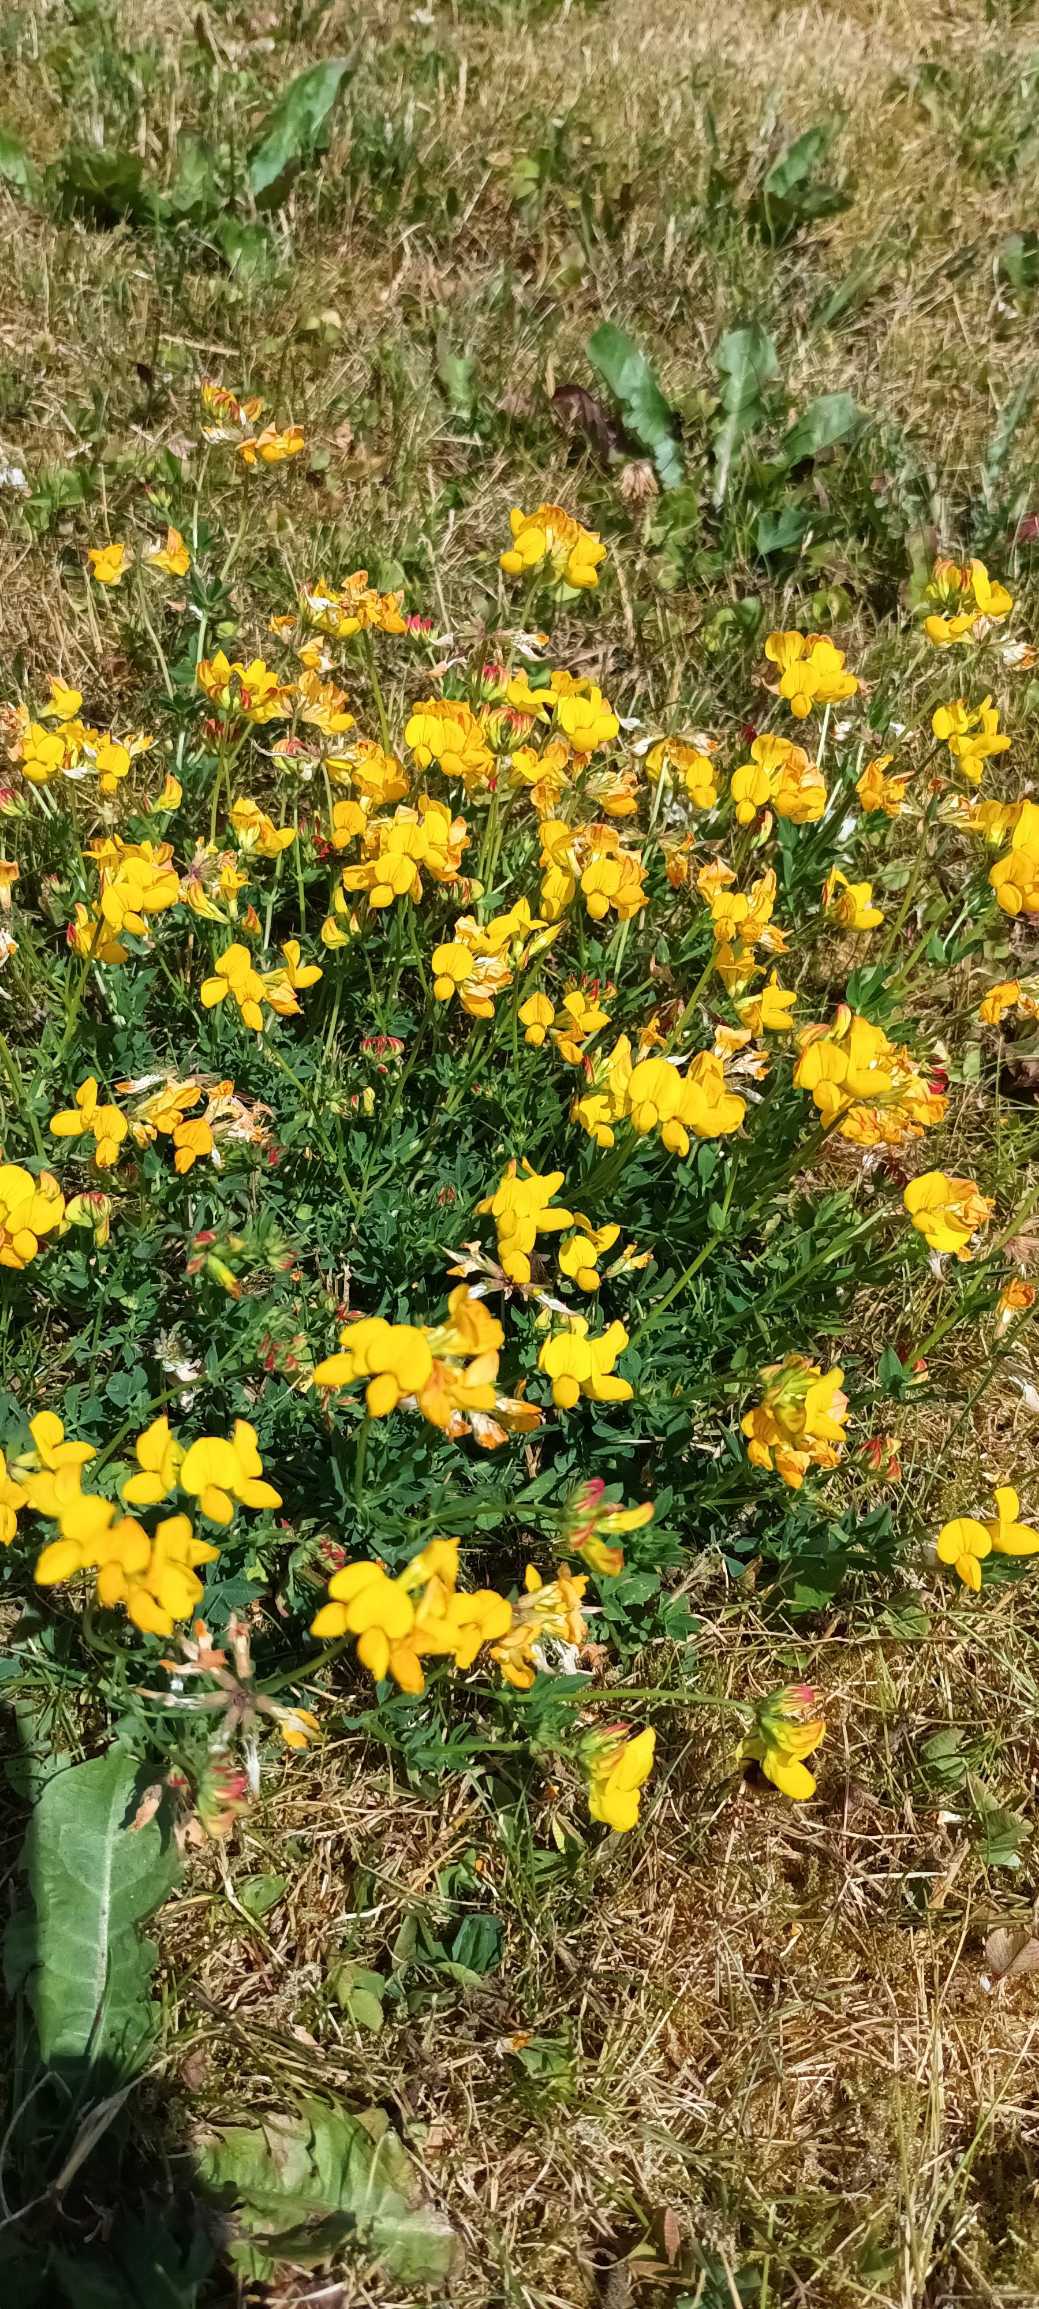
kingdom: Plantae
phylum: Tracheophyta
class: Magnoliopsida
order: Fabales
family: Fabaceae
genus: Lotus
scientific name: Lotus corniculatus
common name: Almindelig kællingetand
